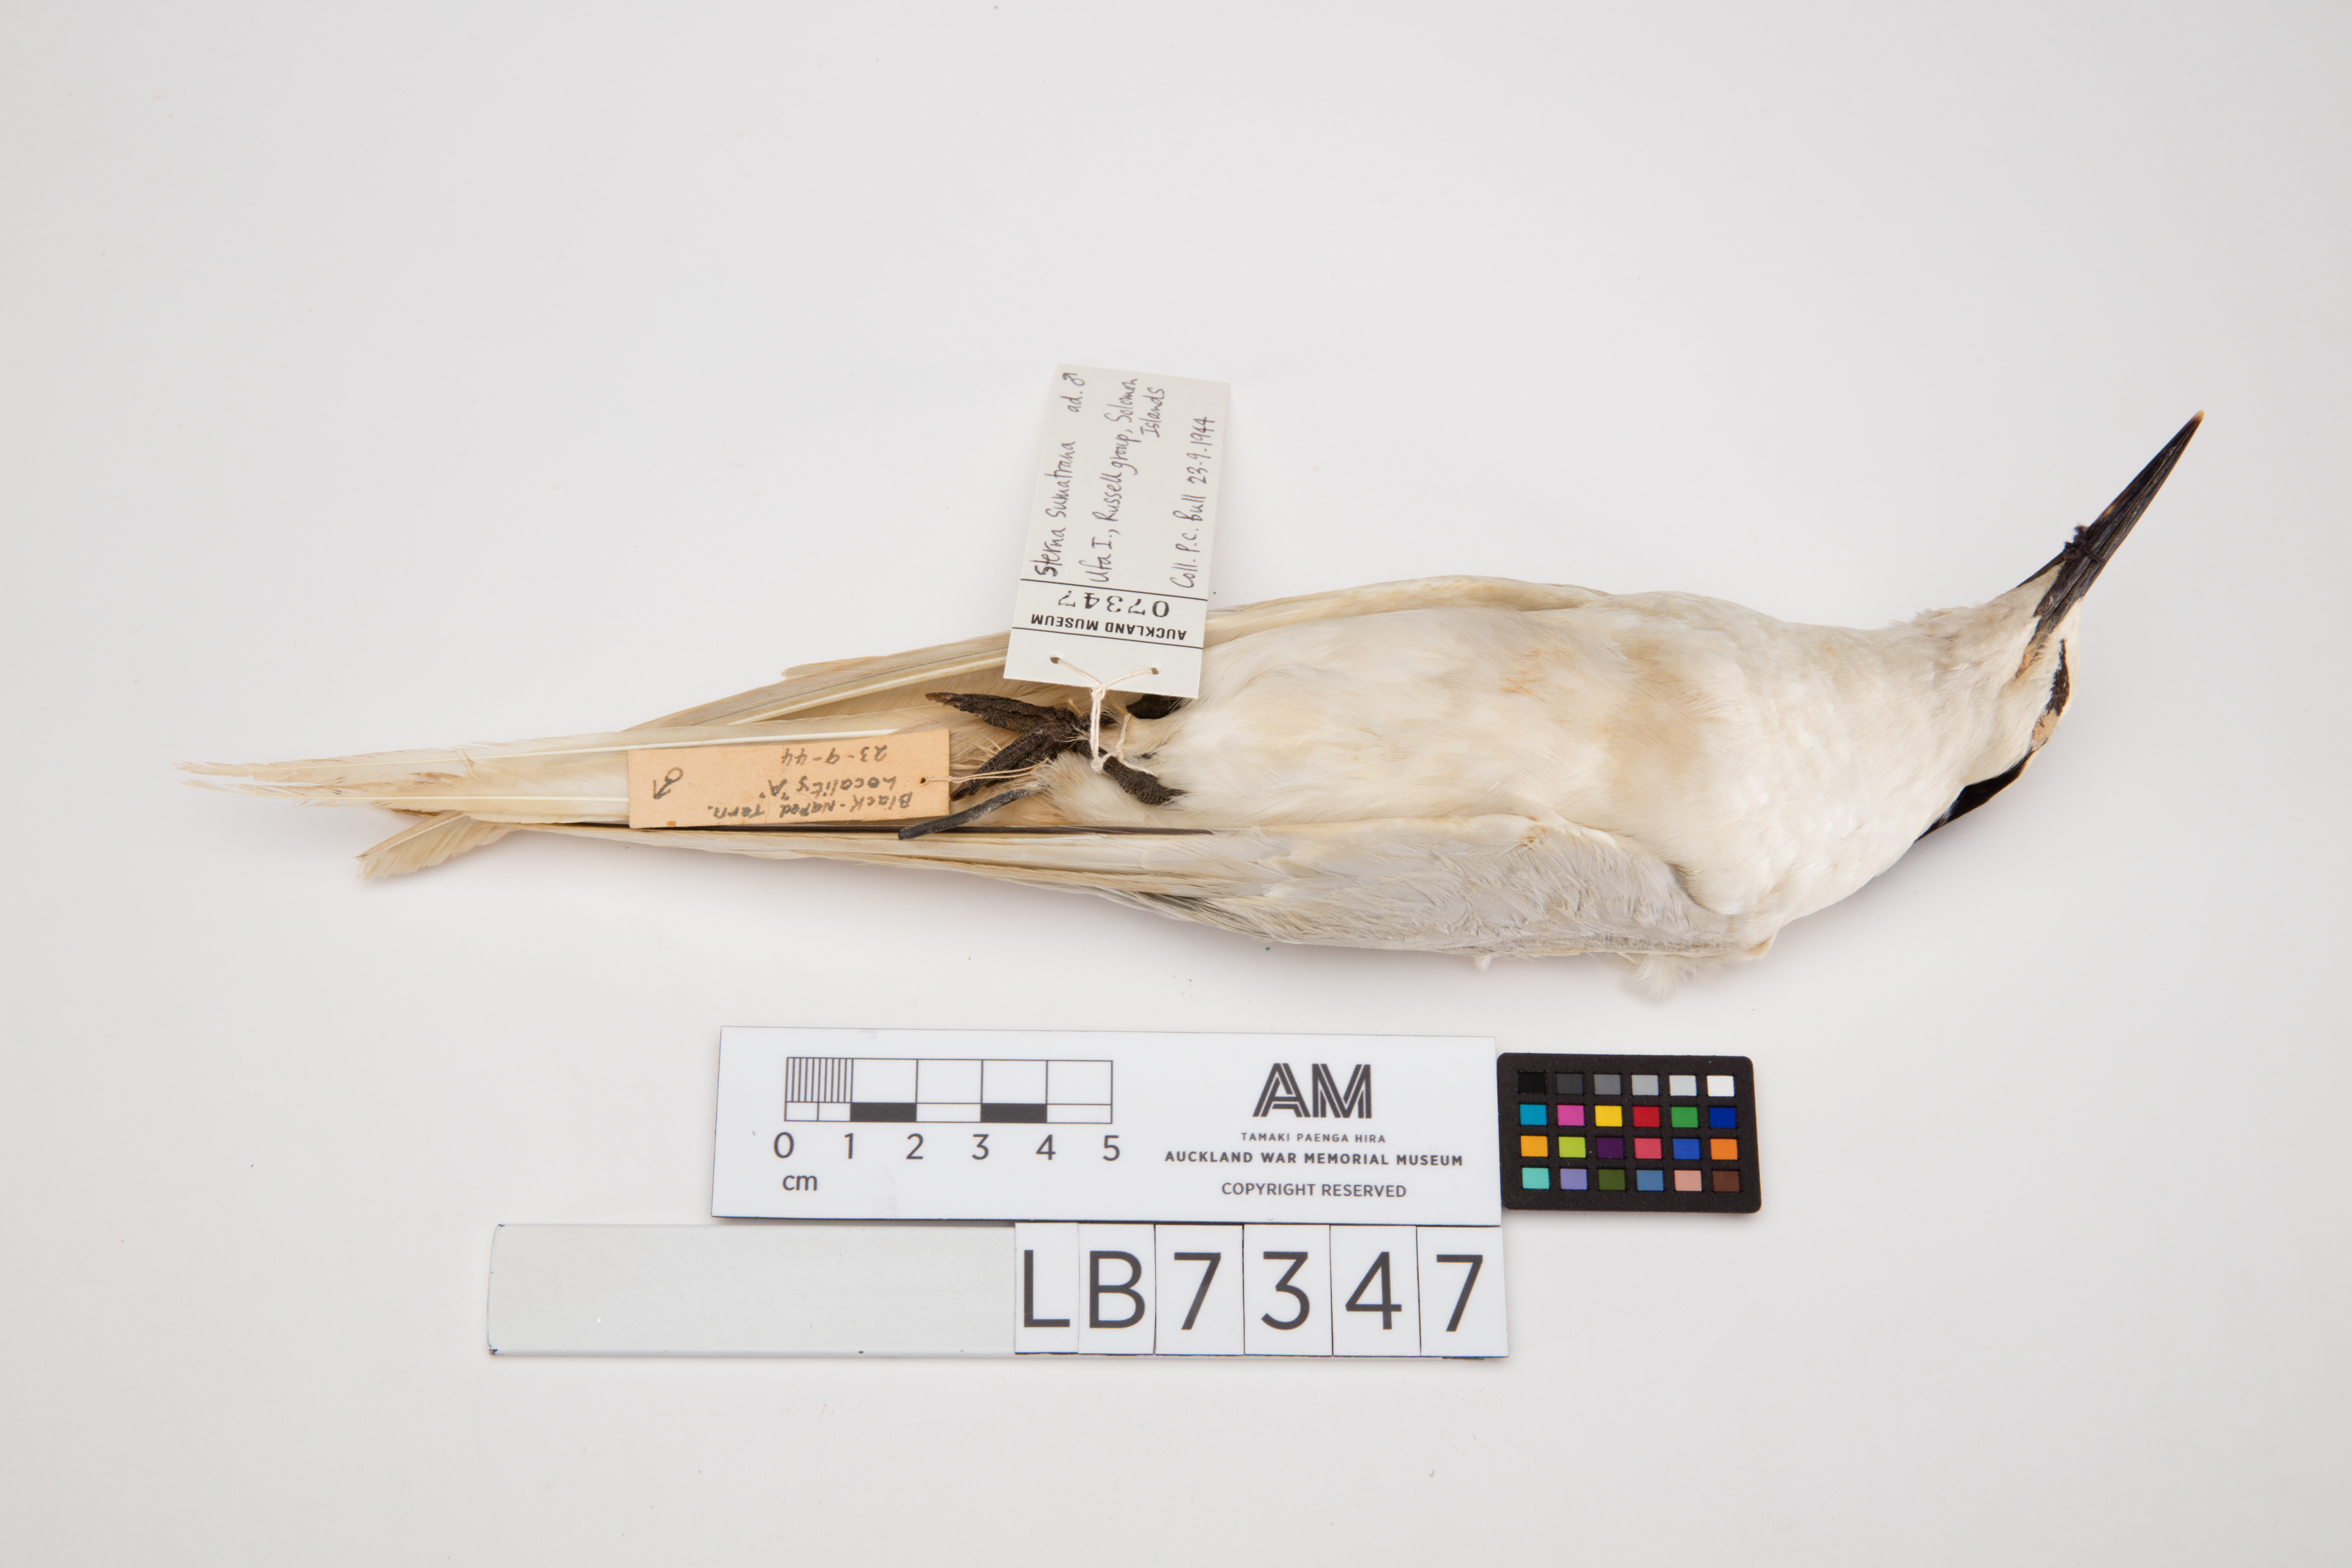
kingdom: Animalia
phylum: Chordata
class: Aves
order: Charadriiformes
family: Laridae
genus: Sterna
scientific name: Sterna sumatrana
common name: Black-naped tern
